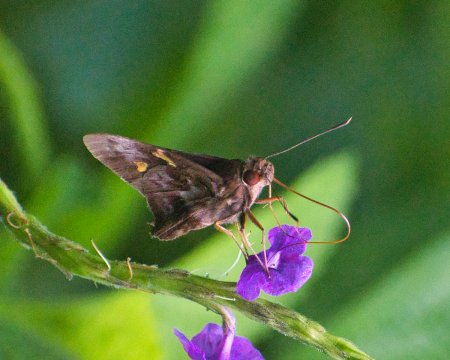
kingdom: Animalia
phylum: Arthropoda
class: Insecta
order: Lepidoptera
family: Hesperiidae
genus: Perichares
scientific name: Perichares philetes
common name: Green-backed Ruby-eye
